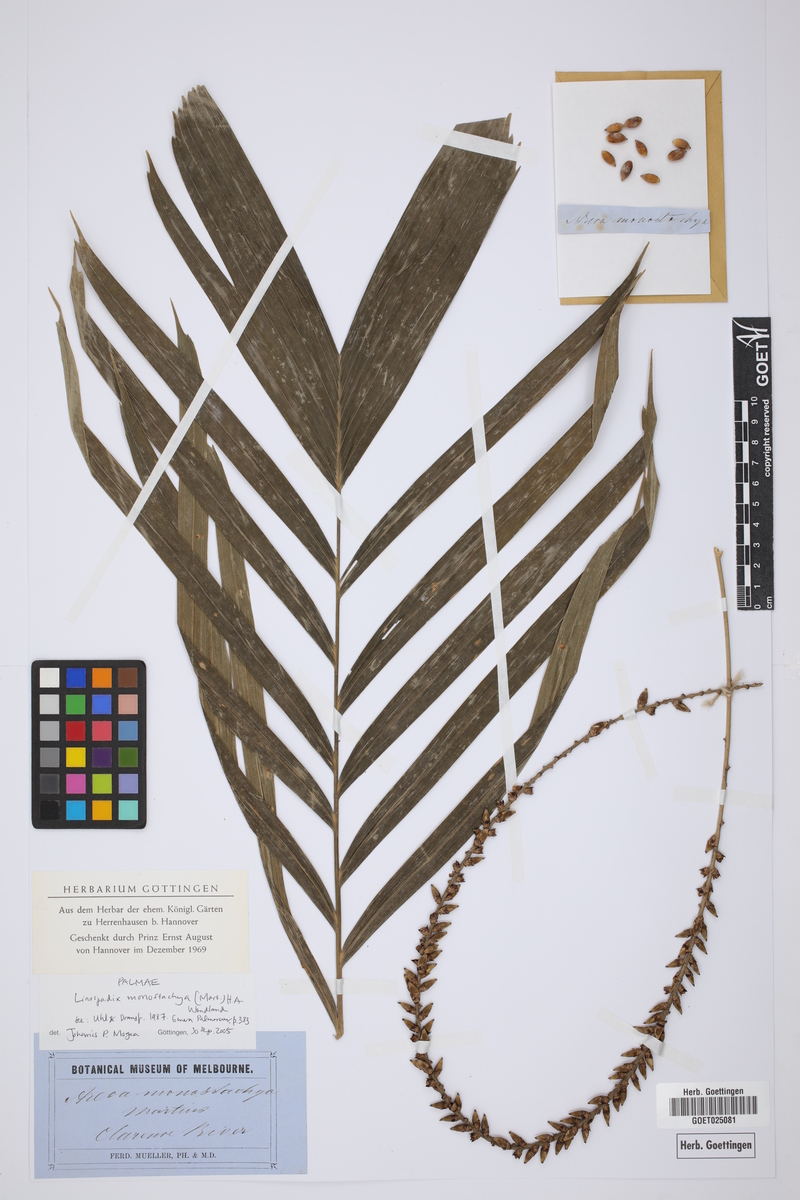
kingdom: Plantae
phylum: Tracheophyta
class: Liliopsida
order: Arecales
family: Arecaceae
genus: Linospadix
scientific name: Linospadix monostachyos
